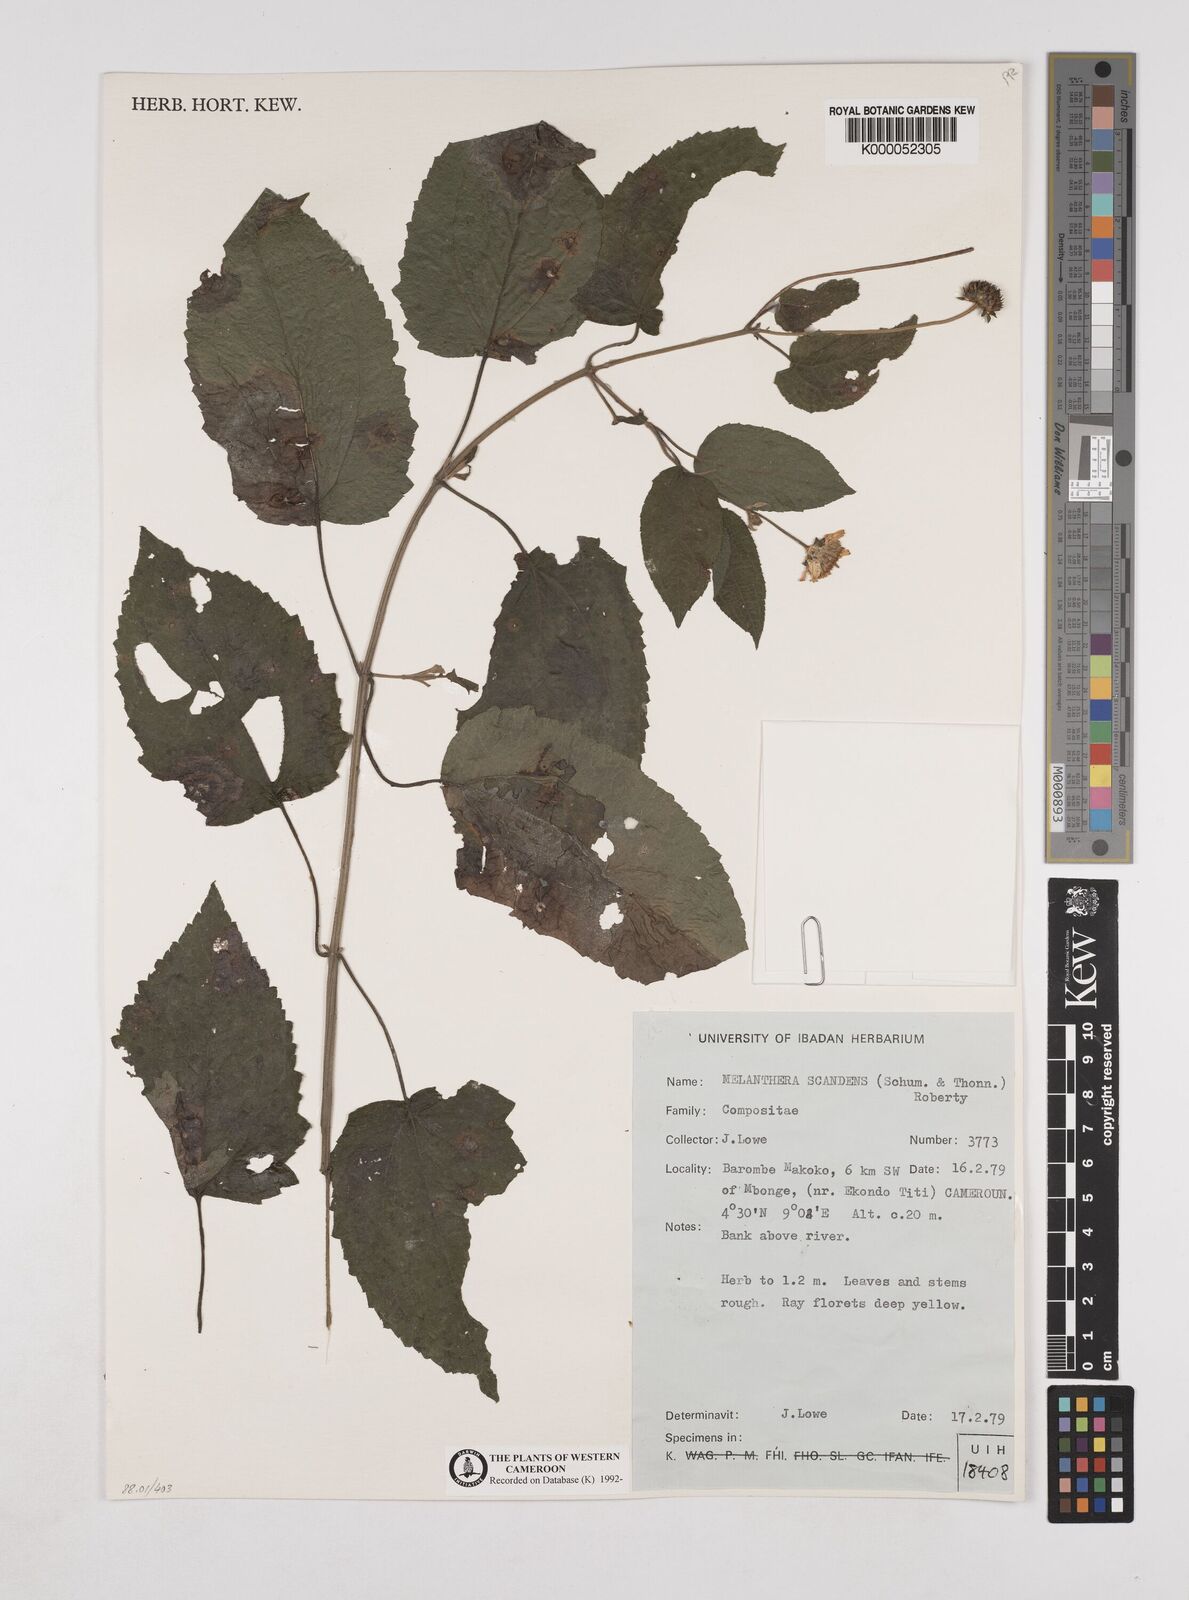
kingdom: Plantae
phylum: Tracheophyta
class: Magnoliopsida
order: Asterales
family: Asteraceae
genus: Melanthera
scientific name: Melanthera
